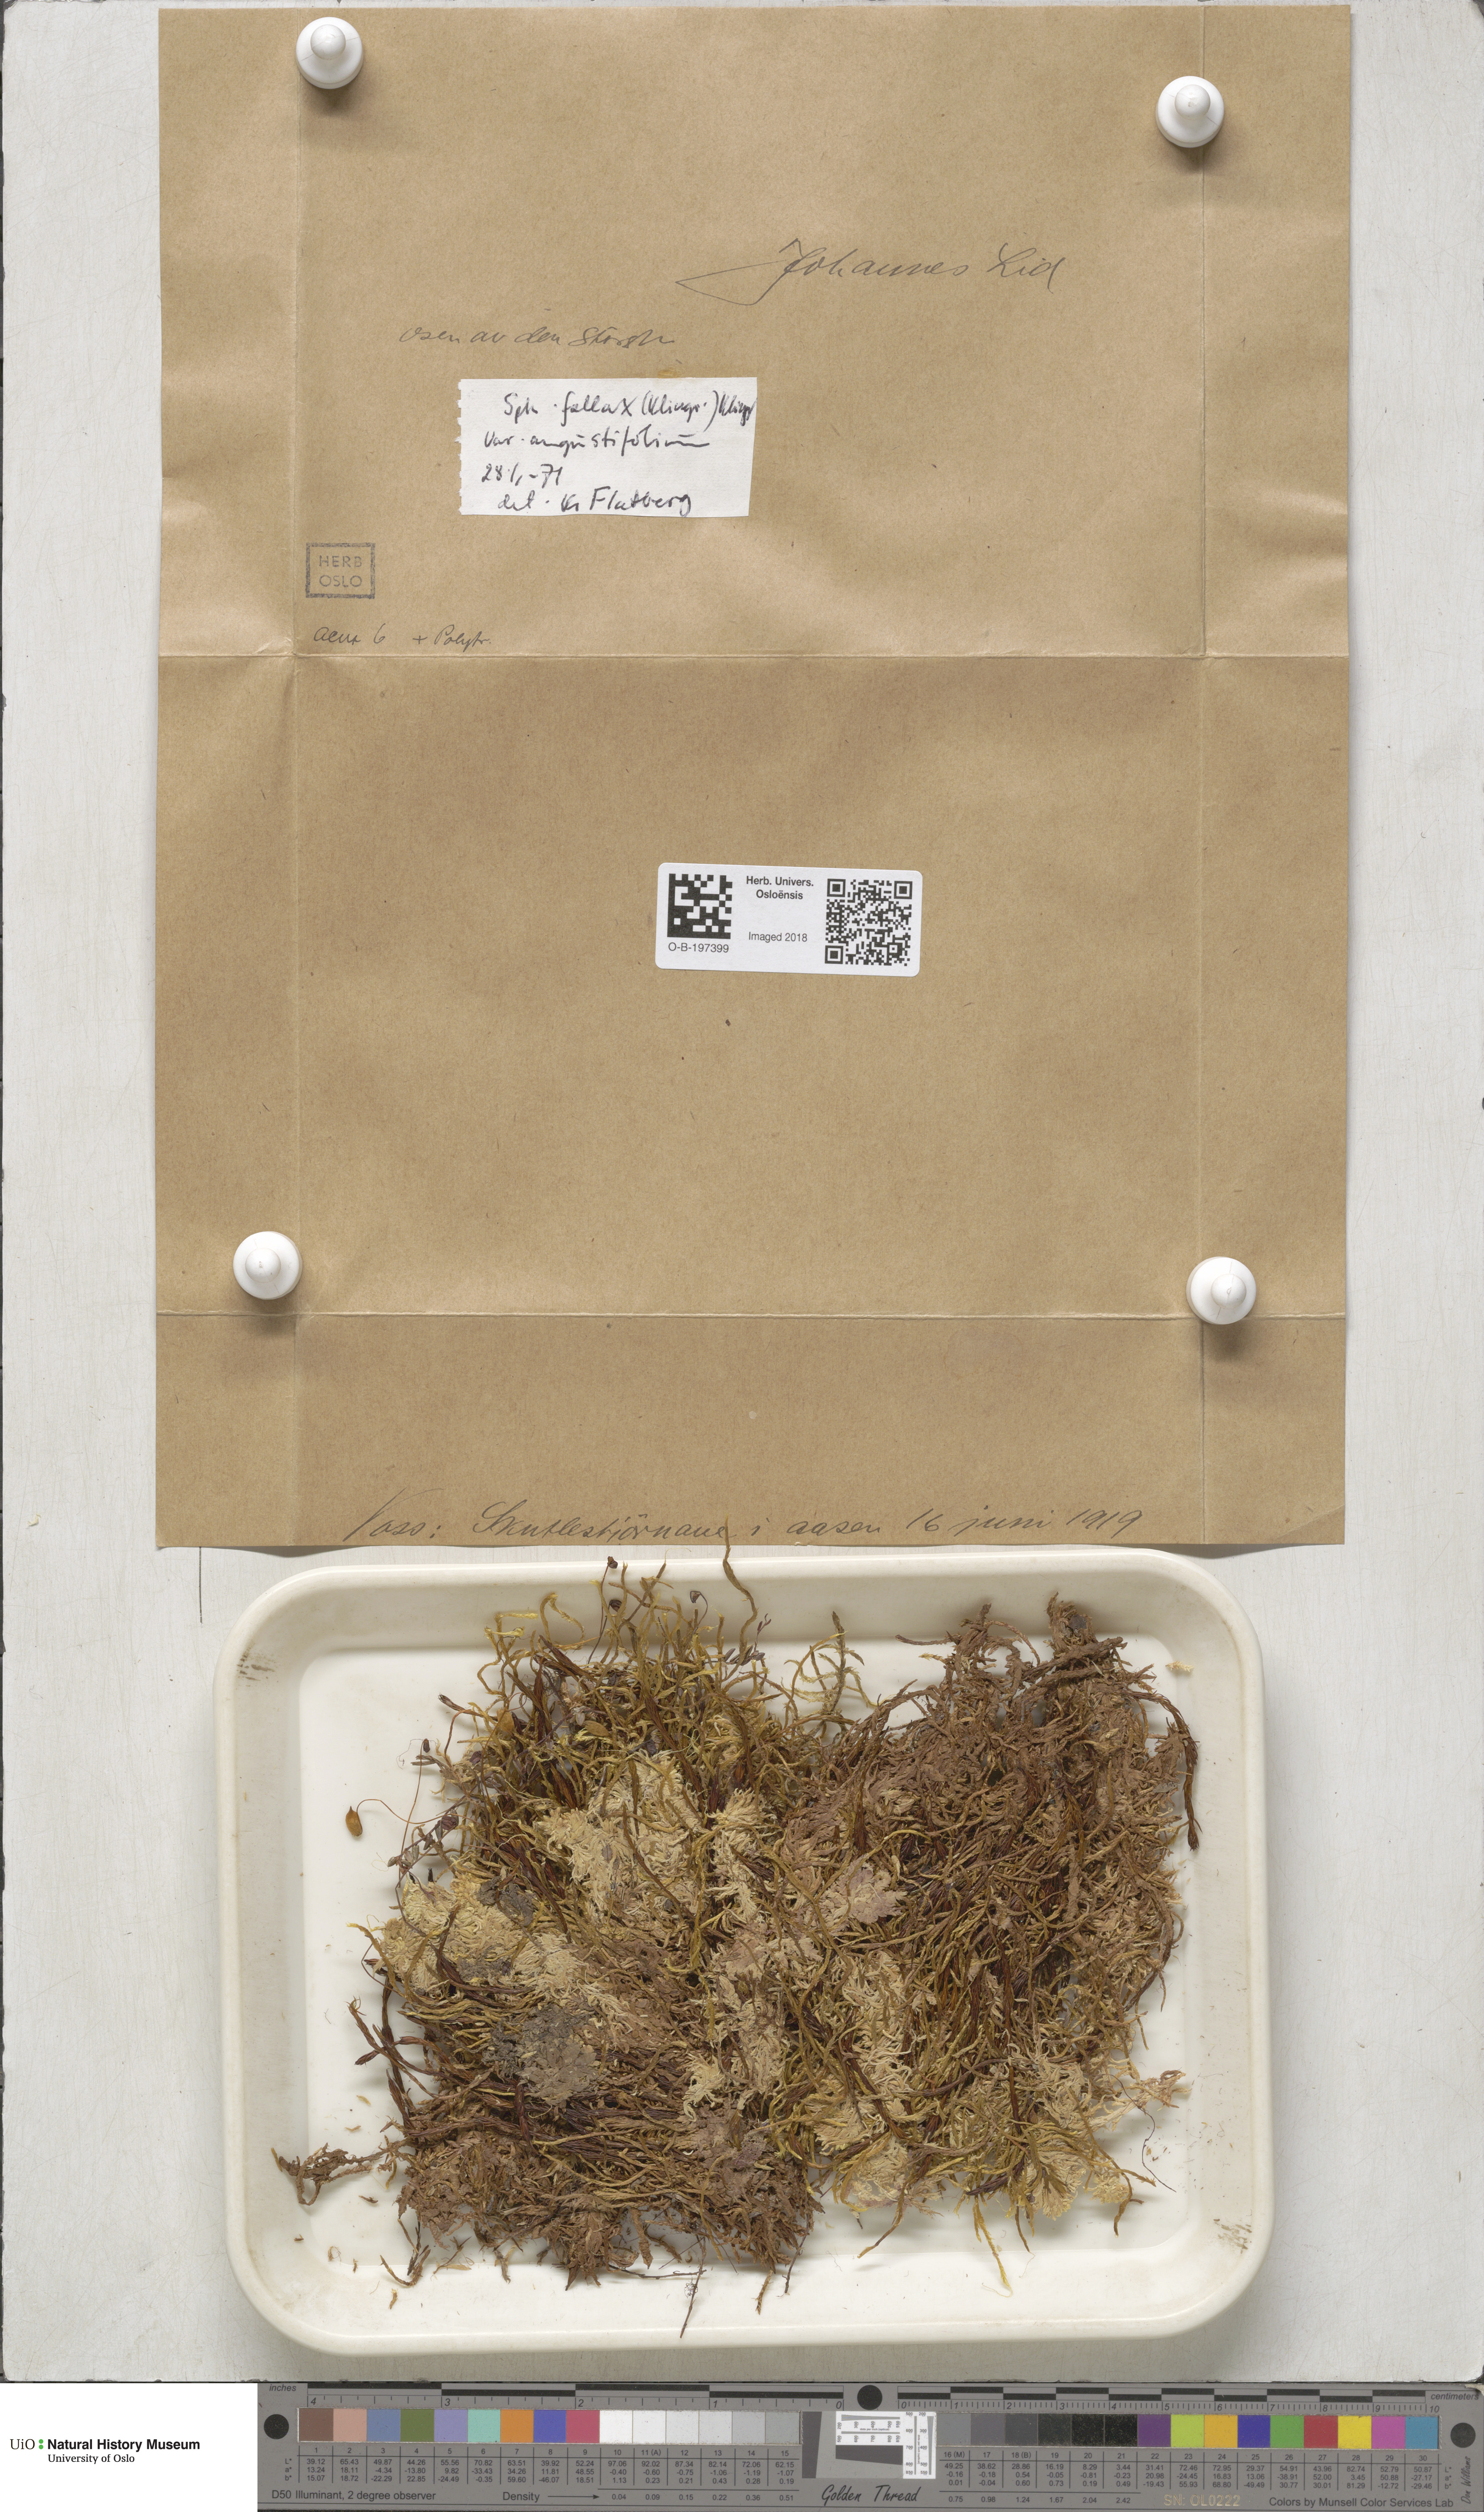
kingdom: Plantae
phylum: Bryophyta
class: Sphagnopsida
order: Sphagnales
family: Sphagnaceae
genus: Sphagnum
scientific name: Sphagnum angustifolium
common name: Narrow-leaved peat moss
